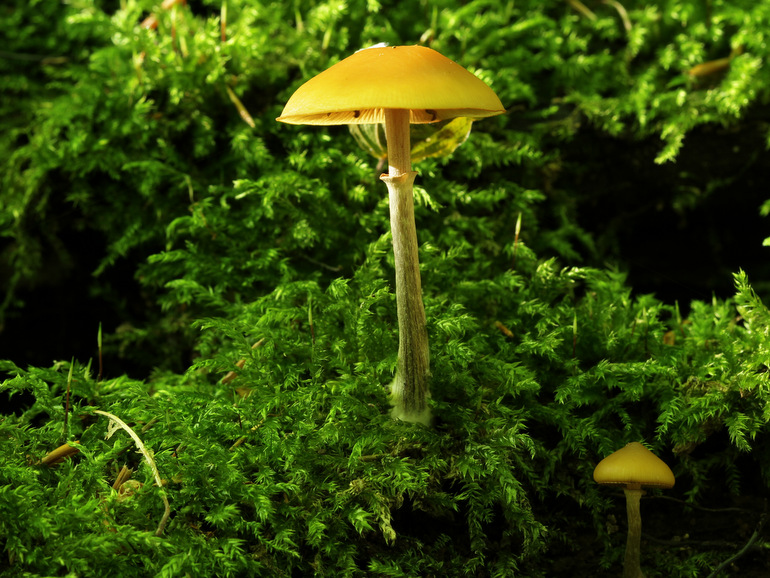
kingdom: Fungi
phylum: Basidiomycota
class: Agaricomycetes
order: Agaricales
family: Hymenogastraceae
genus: Galerina
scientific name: Galerina marginata
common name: randbæltet hjelmhat
